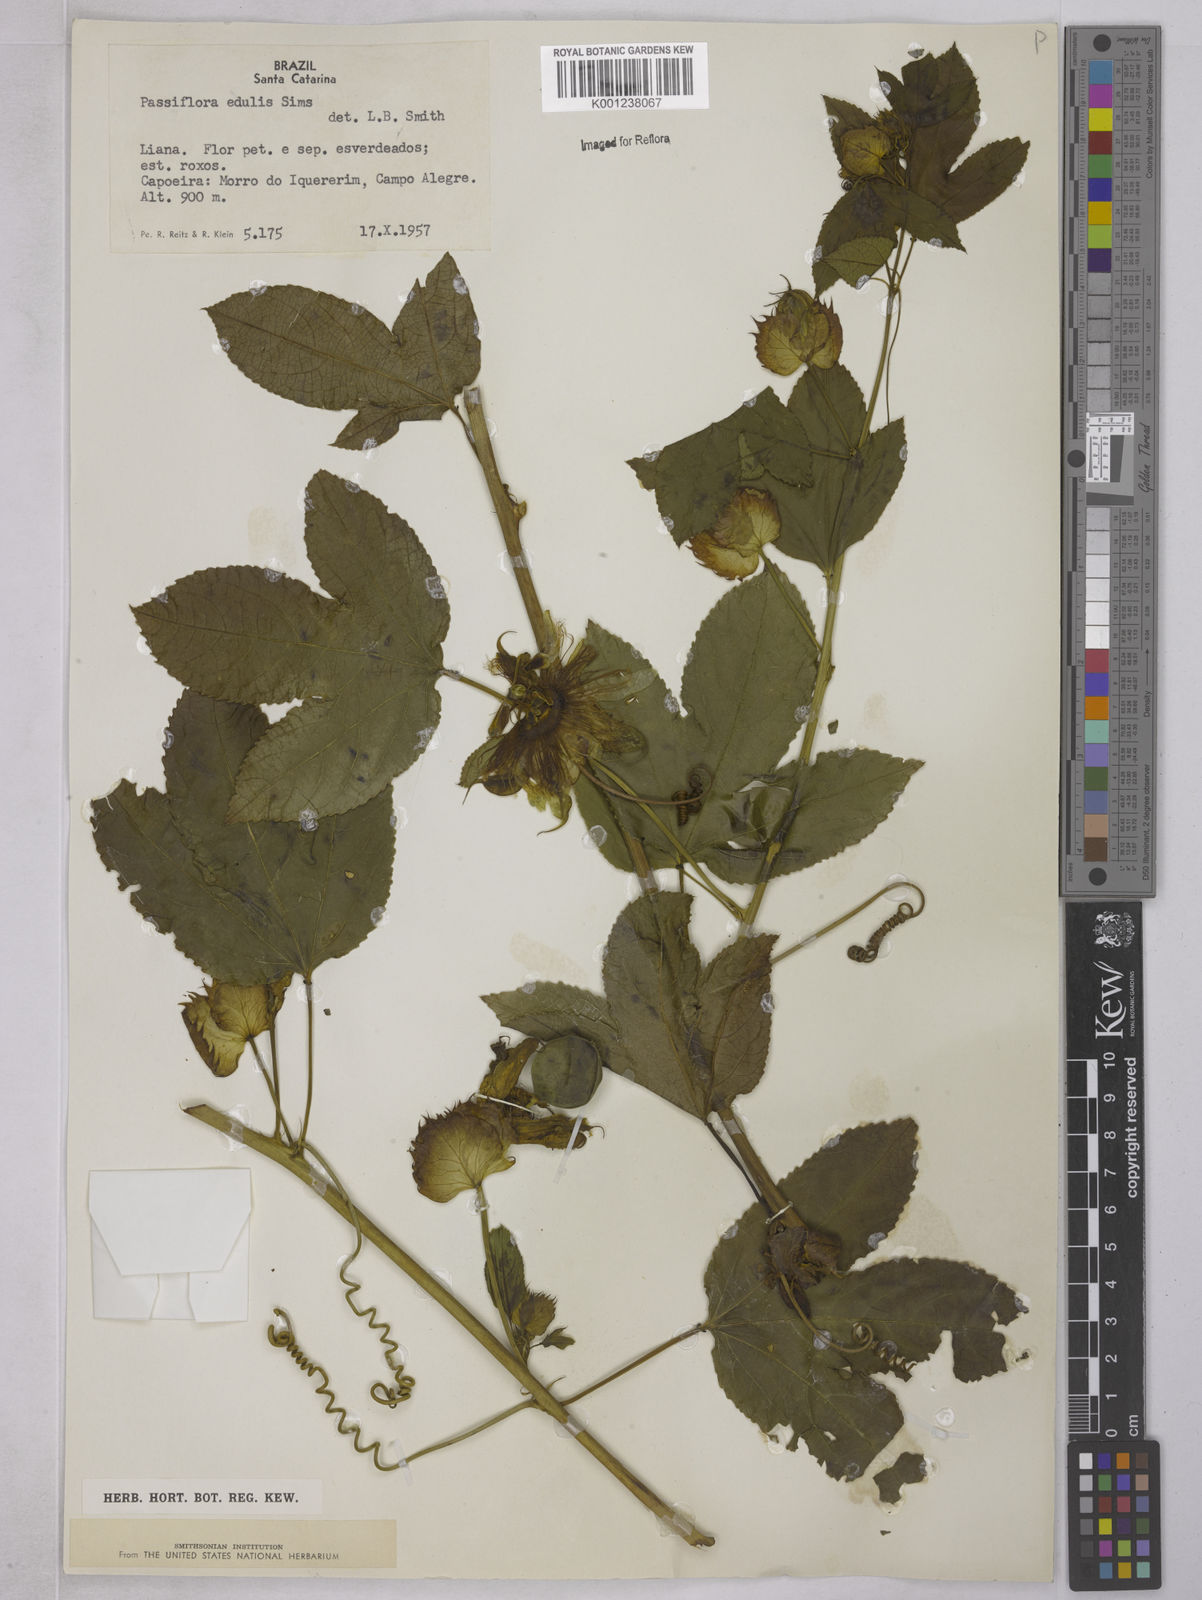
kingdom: Plantae
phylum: Tracheophyta
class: Magnoliopsida
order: Malpighiales
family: Passifloraceae
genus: Passiflora
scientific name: Passiflora edulis
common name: Purple granadilla
